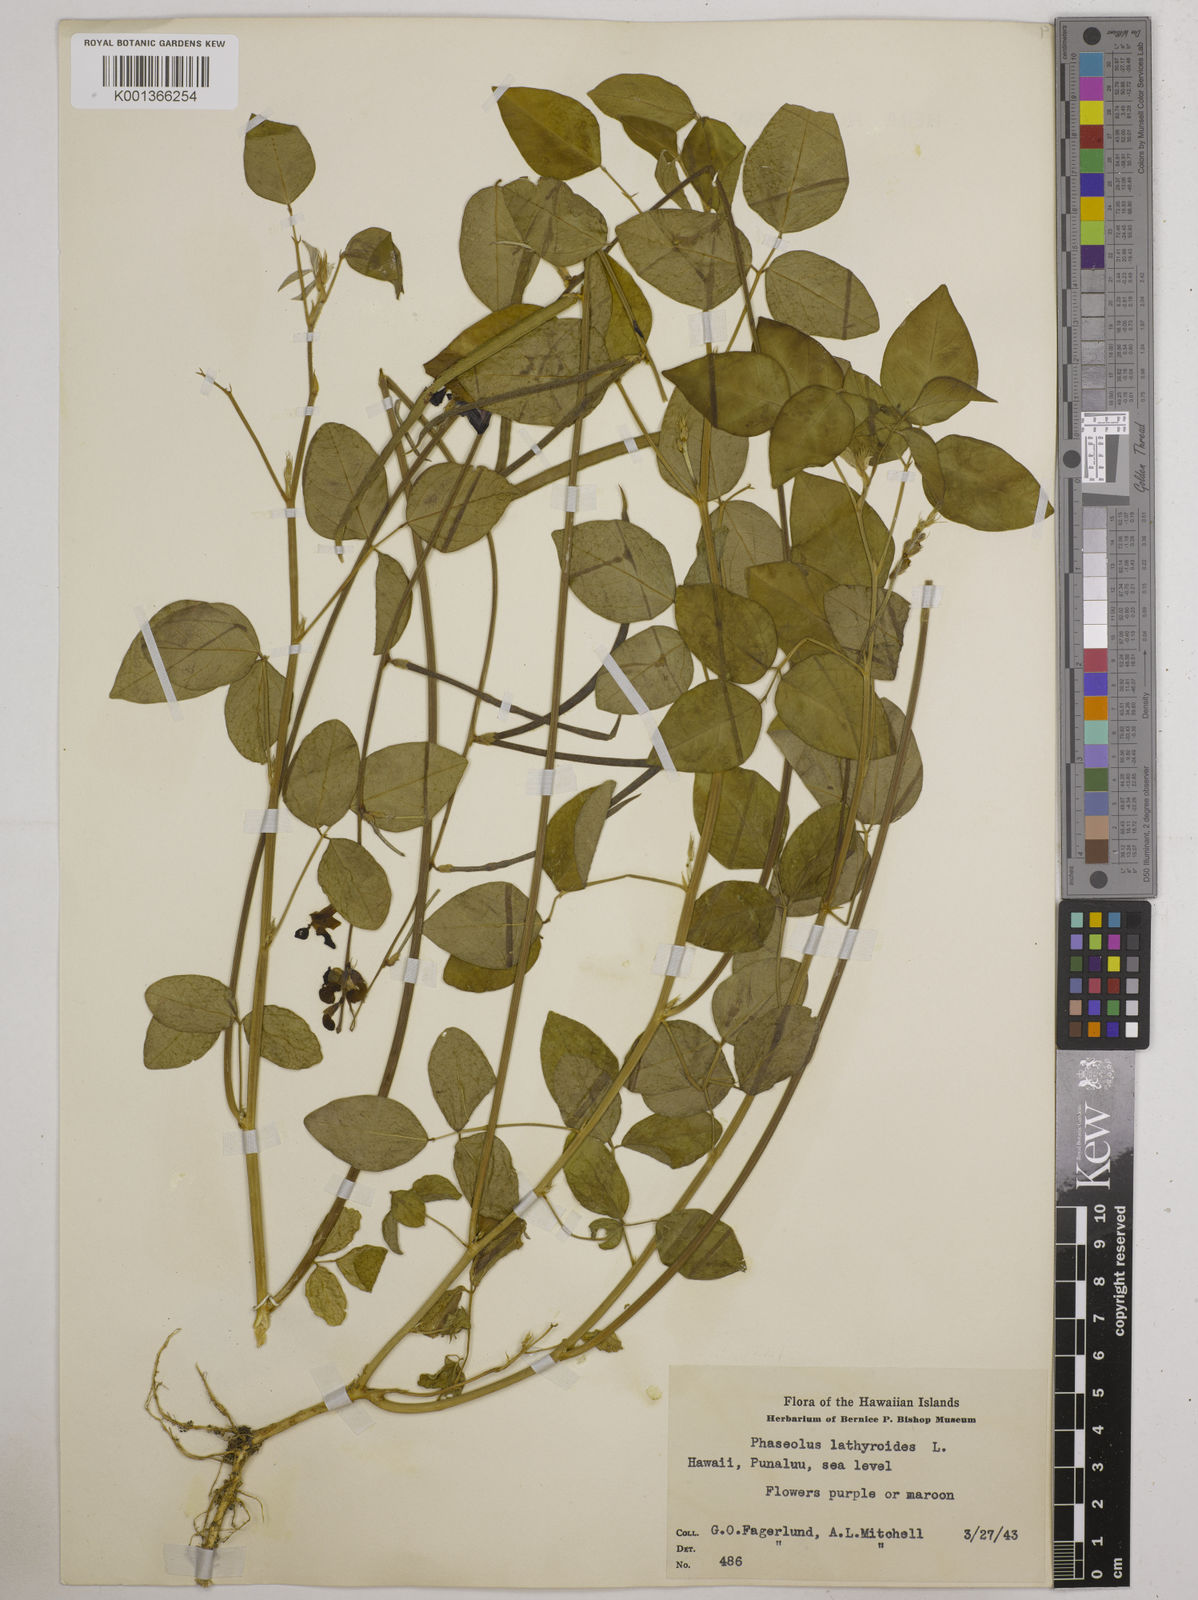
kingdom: Plantae
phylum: Tracheophyta
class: Magnoliopsida
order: Fabales
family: Fabaceae
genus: Macroptilium
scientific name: Macroptilium lathyroides
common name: Wild bushbean
